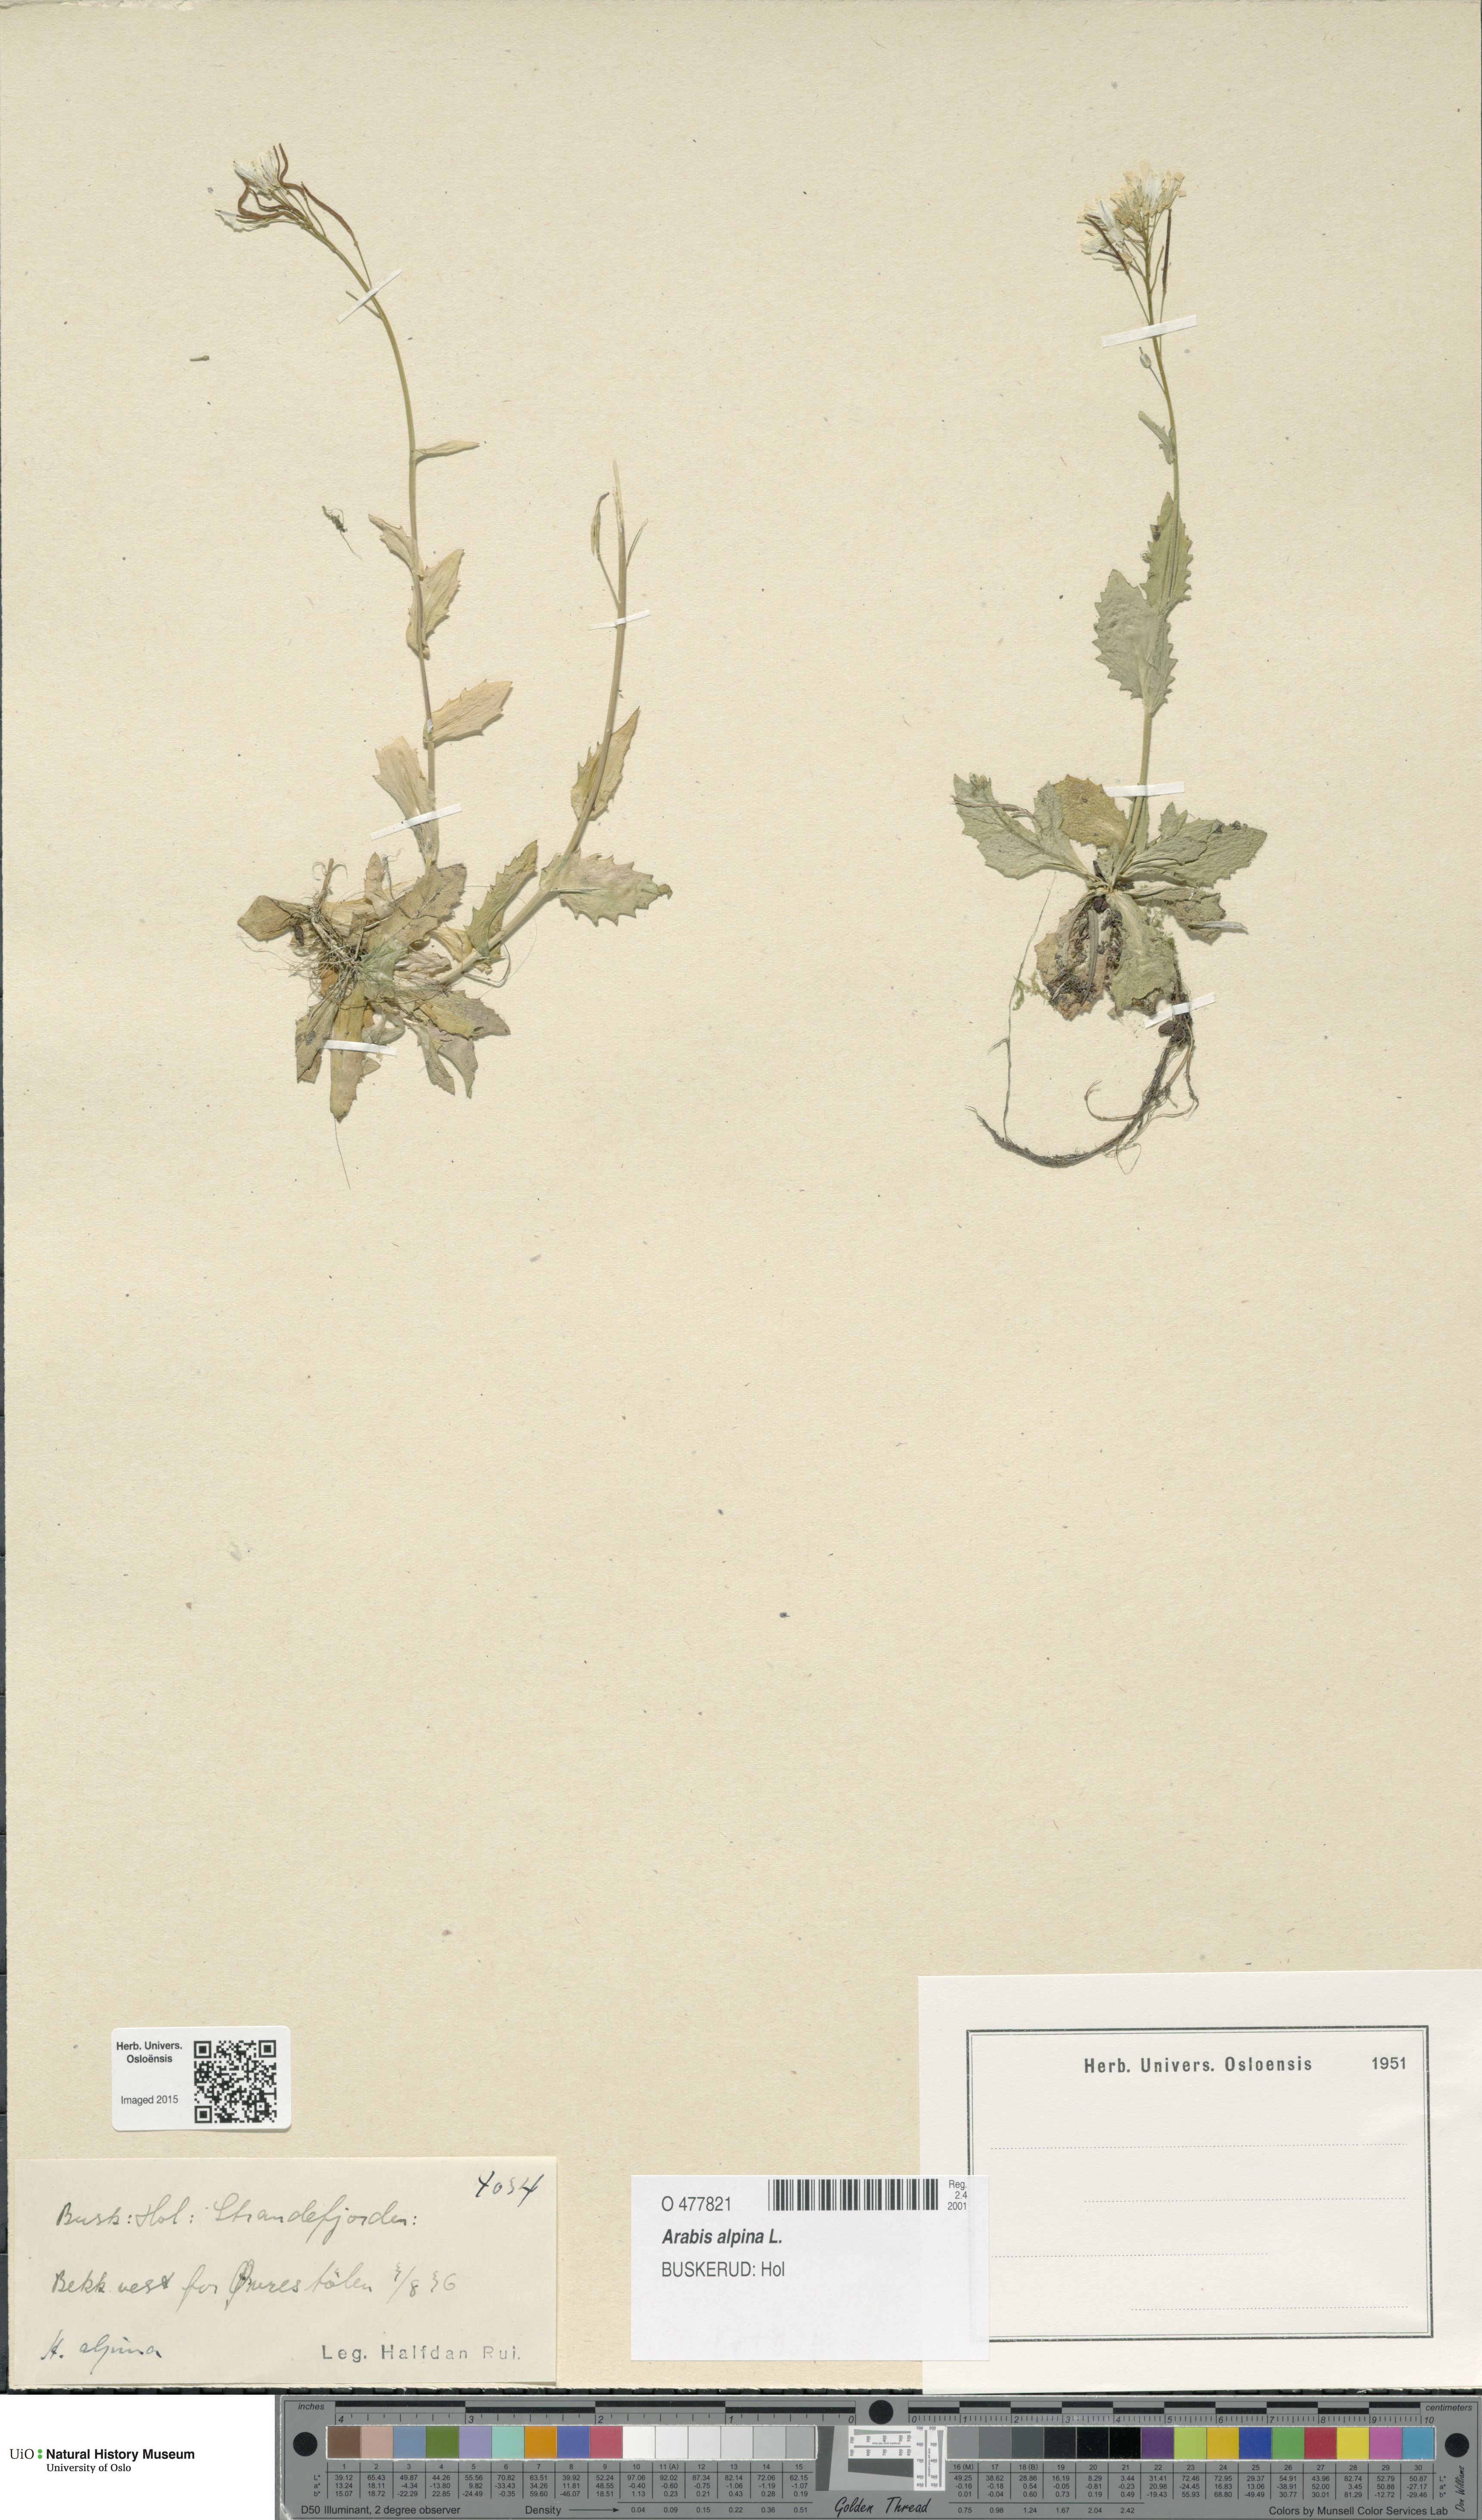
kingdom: Plantae
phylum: Tracheophyta
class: Magnoliopsida
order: Brassicales
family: Brassicaceae
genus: Arabis
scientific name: Arabis alpina
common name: Alpine rock-cress
